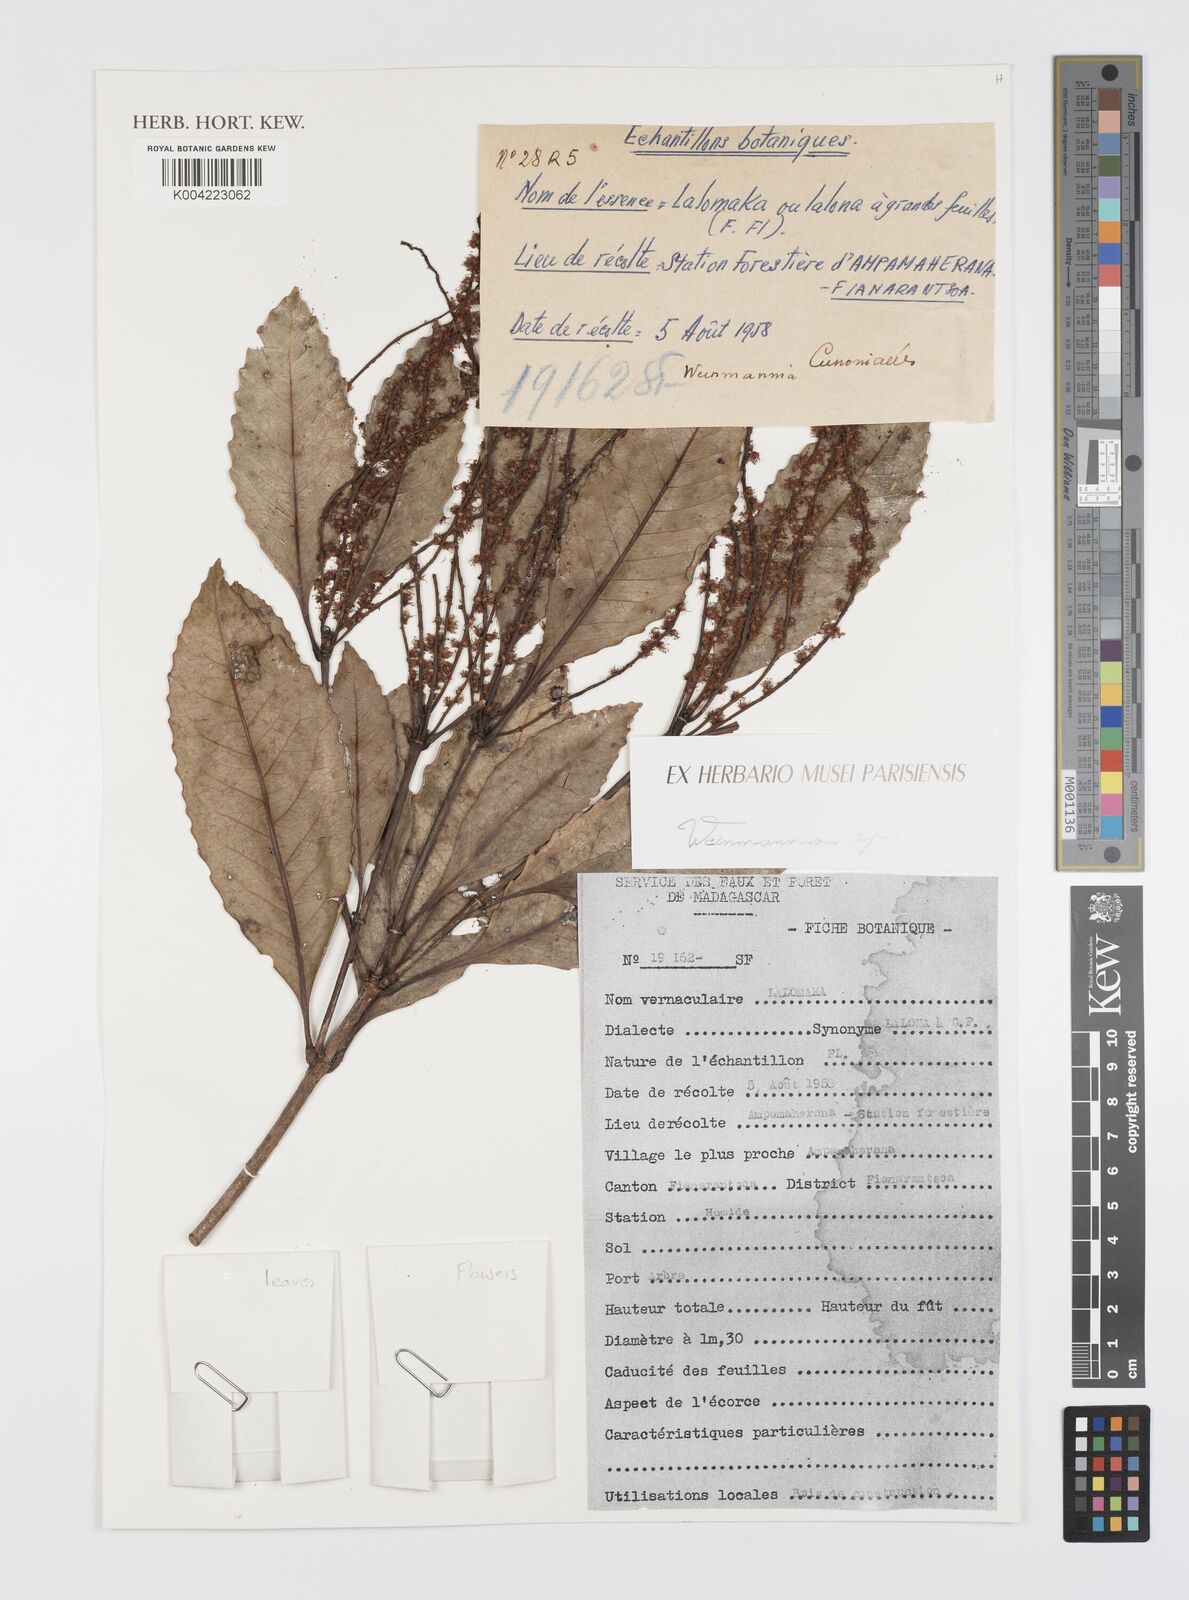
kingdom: Plantae
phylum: Tracheophyta
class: Magnoliopsida
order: Oxalidales
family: Cunoniaceae
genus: Weinmannia
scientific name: Weinmannia
